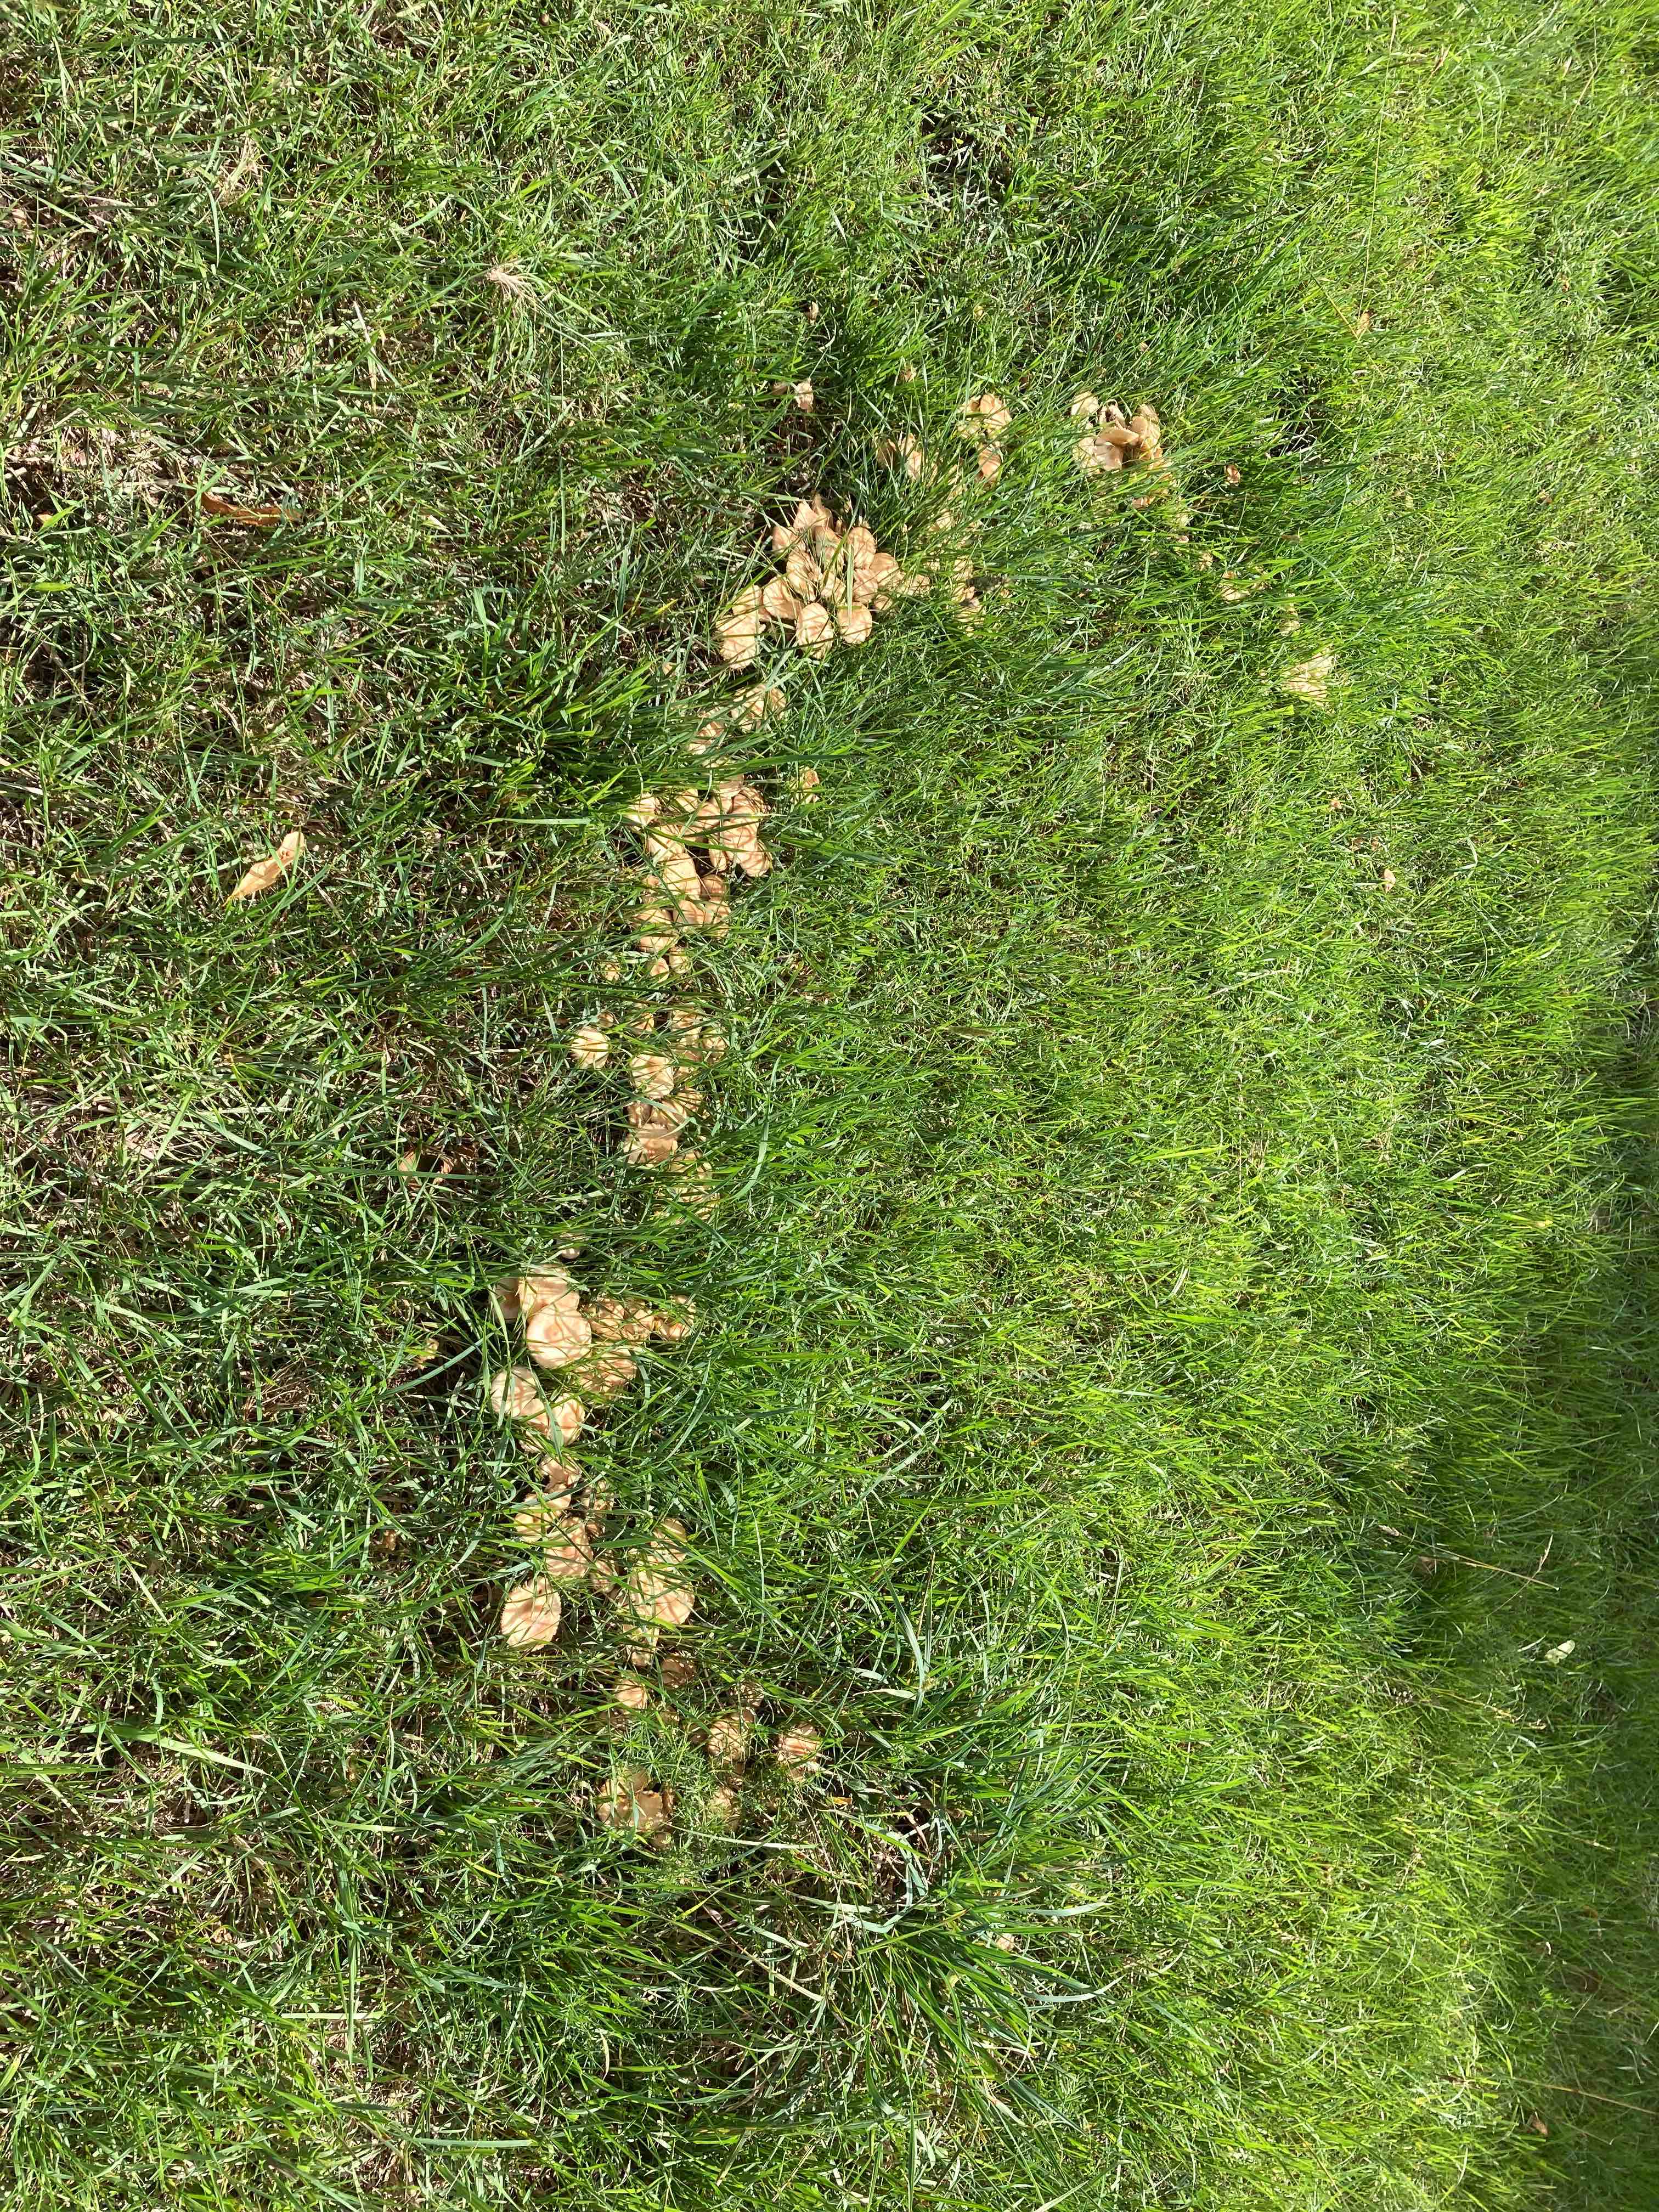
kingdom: Fungi
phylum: Basidiomycota
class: Agaricomycetes
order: Agaricales
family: Marasmiaceae
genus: Marasmius
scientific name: Marasmius oreades
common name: elledans-bruskhat
